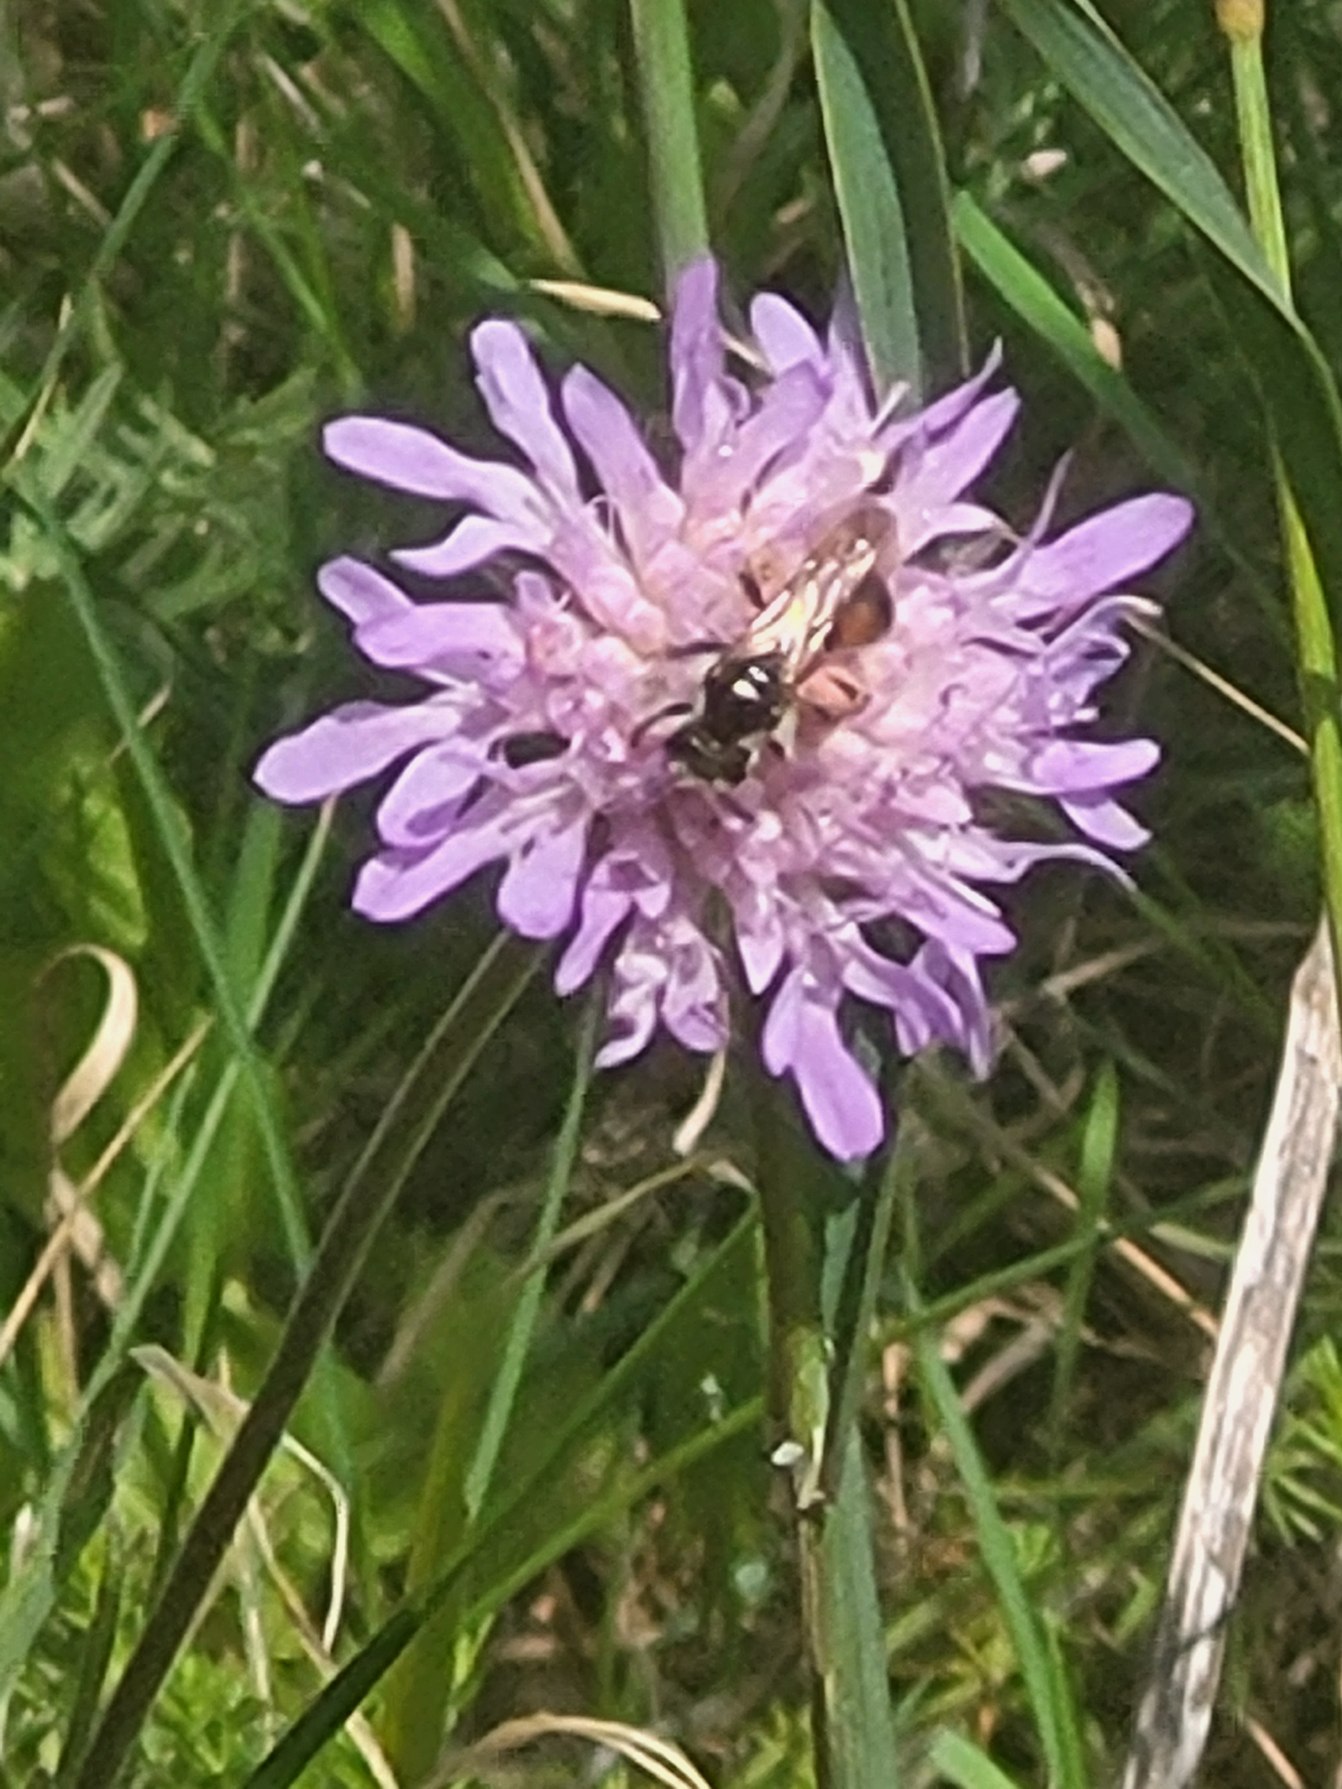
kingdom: Animalia
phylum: Arthropoda
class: Insecta
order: Hymenoptera
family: Andrenidae
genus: Andrena
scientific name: Andrena hattorfiana
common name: Blåhatjordbi
